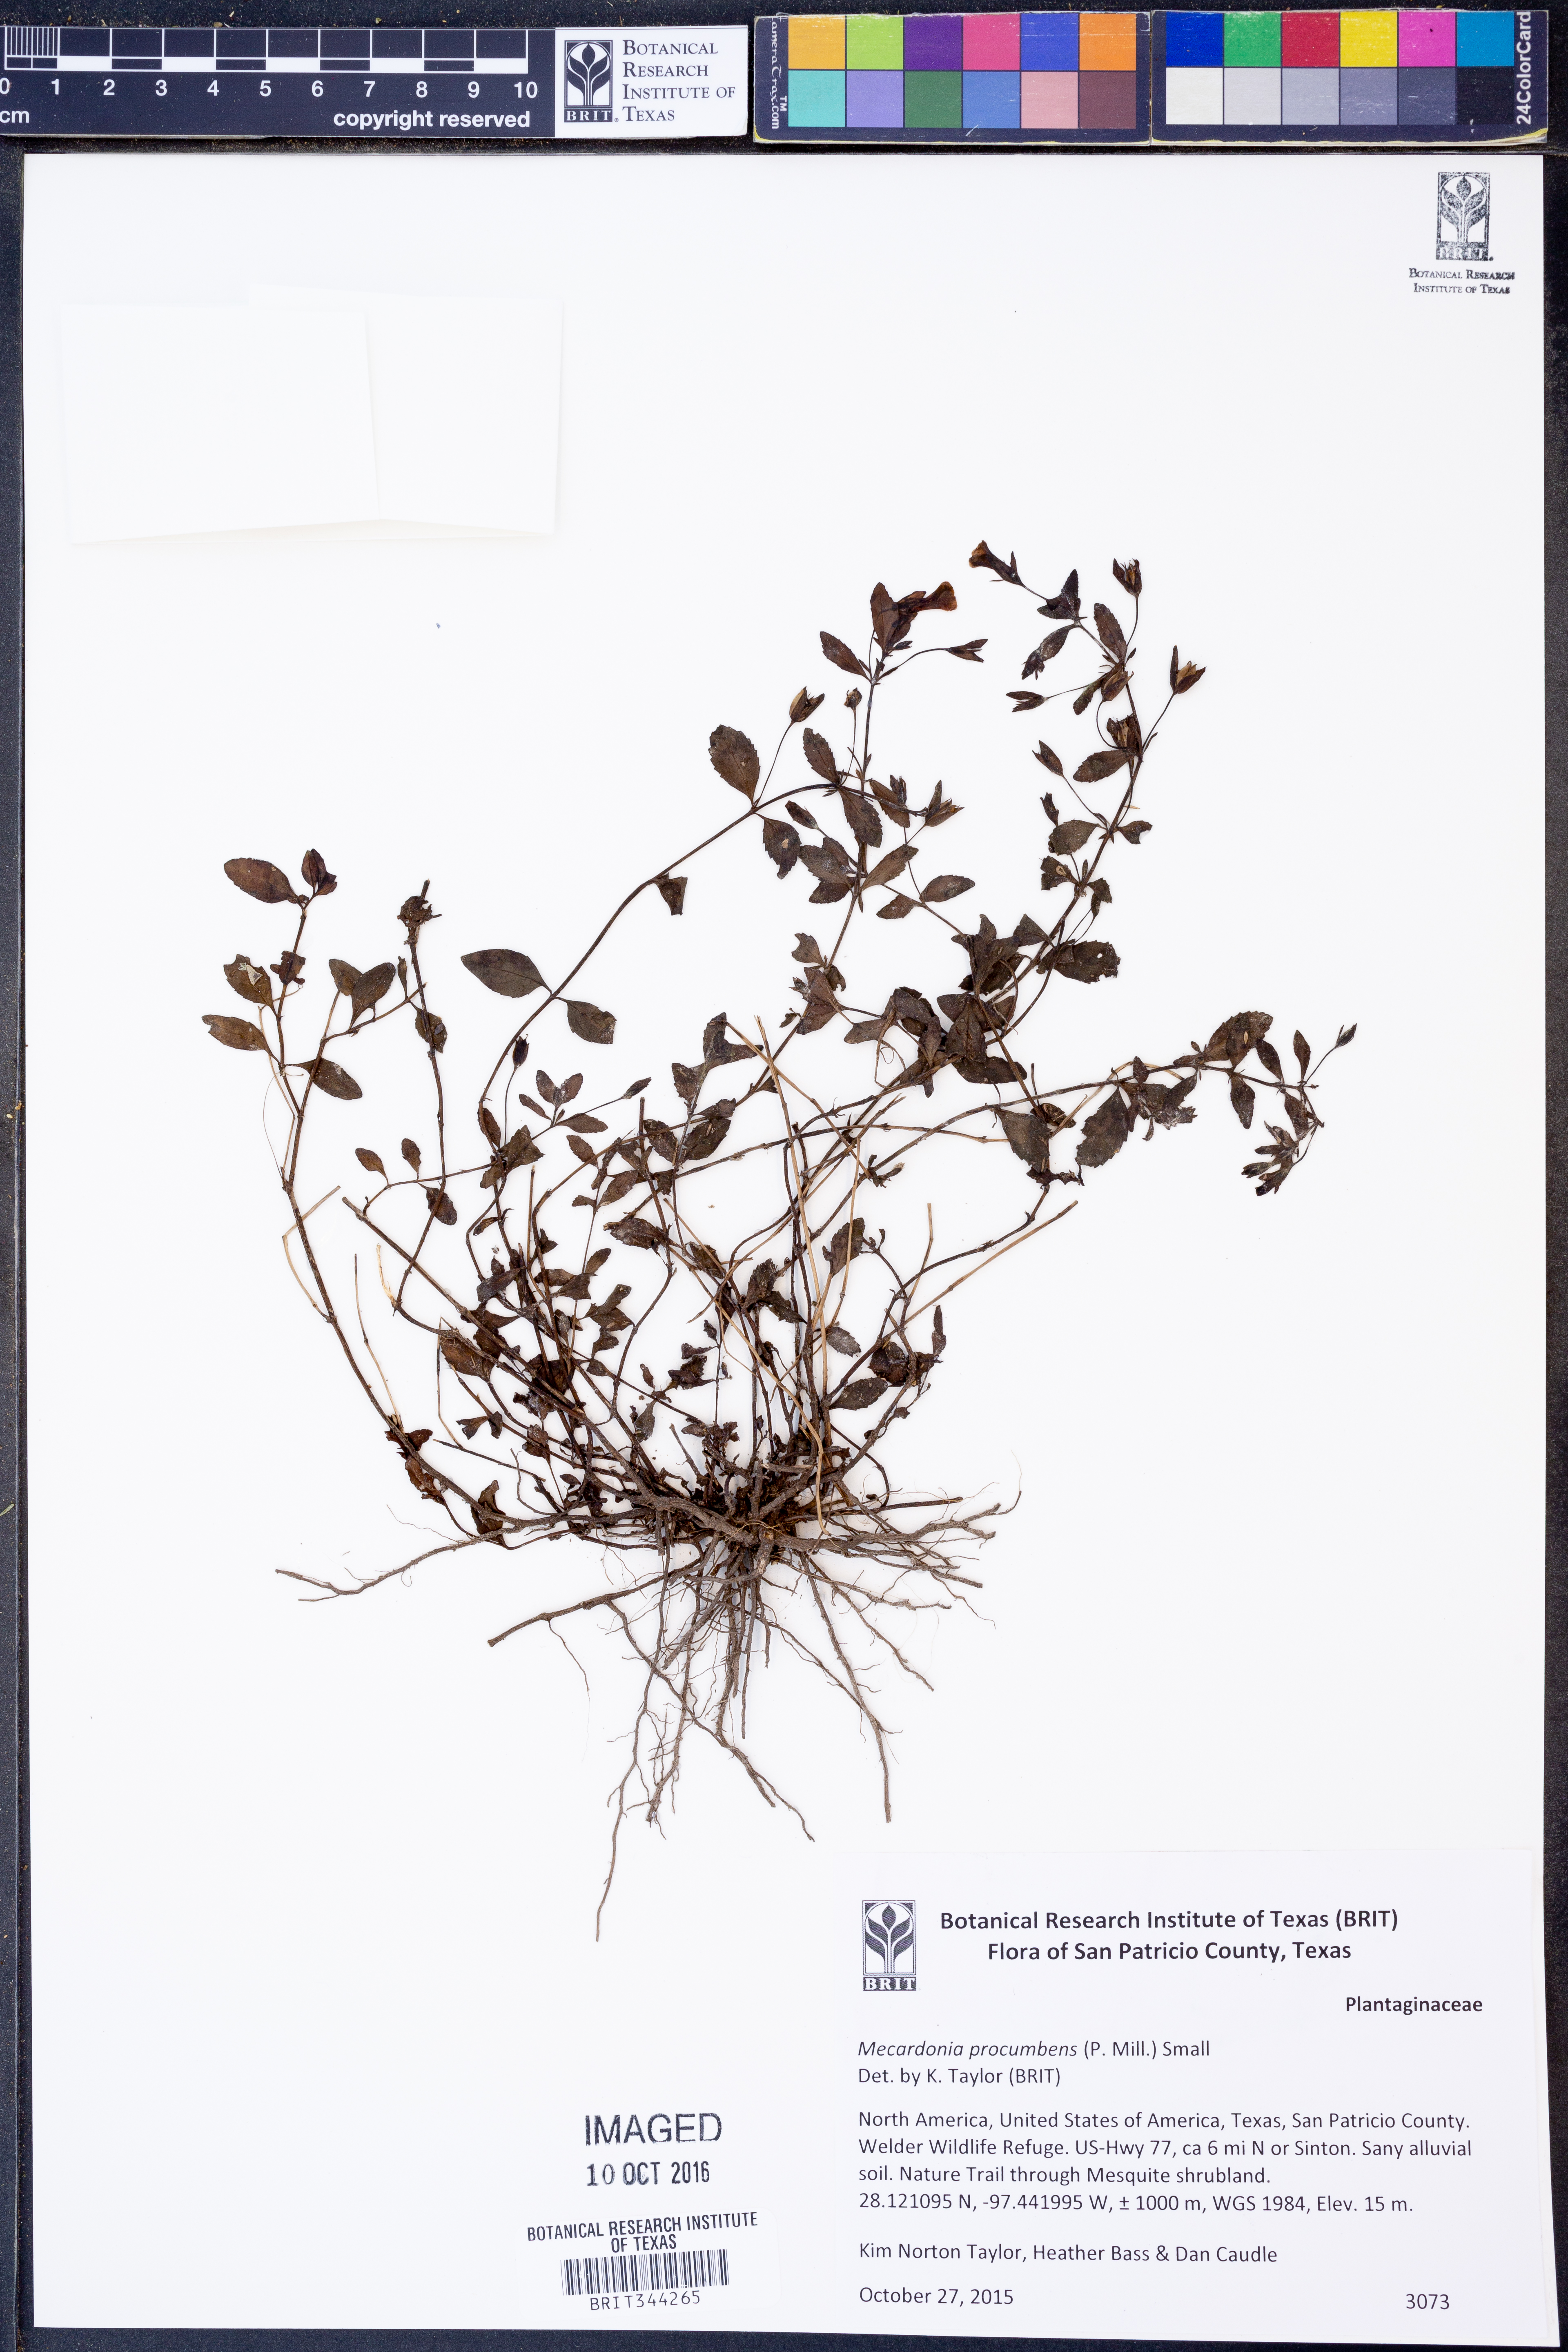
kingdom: Plantae
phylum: Tracheophyta
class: Magnoliopsida
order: Lamiales
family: Plantaginaceae
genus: Mecardonia
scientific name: Mecardonia procumbens
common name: Baby jump-up
